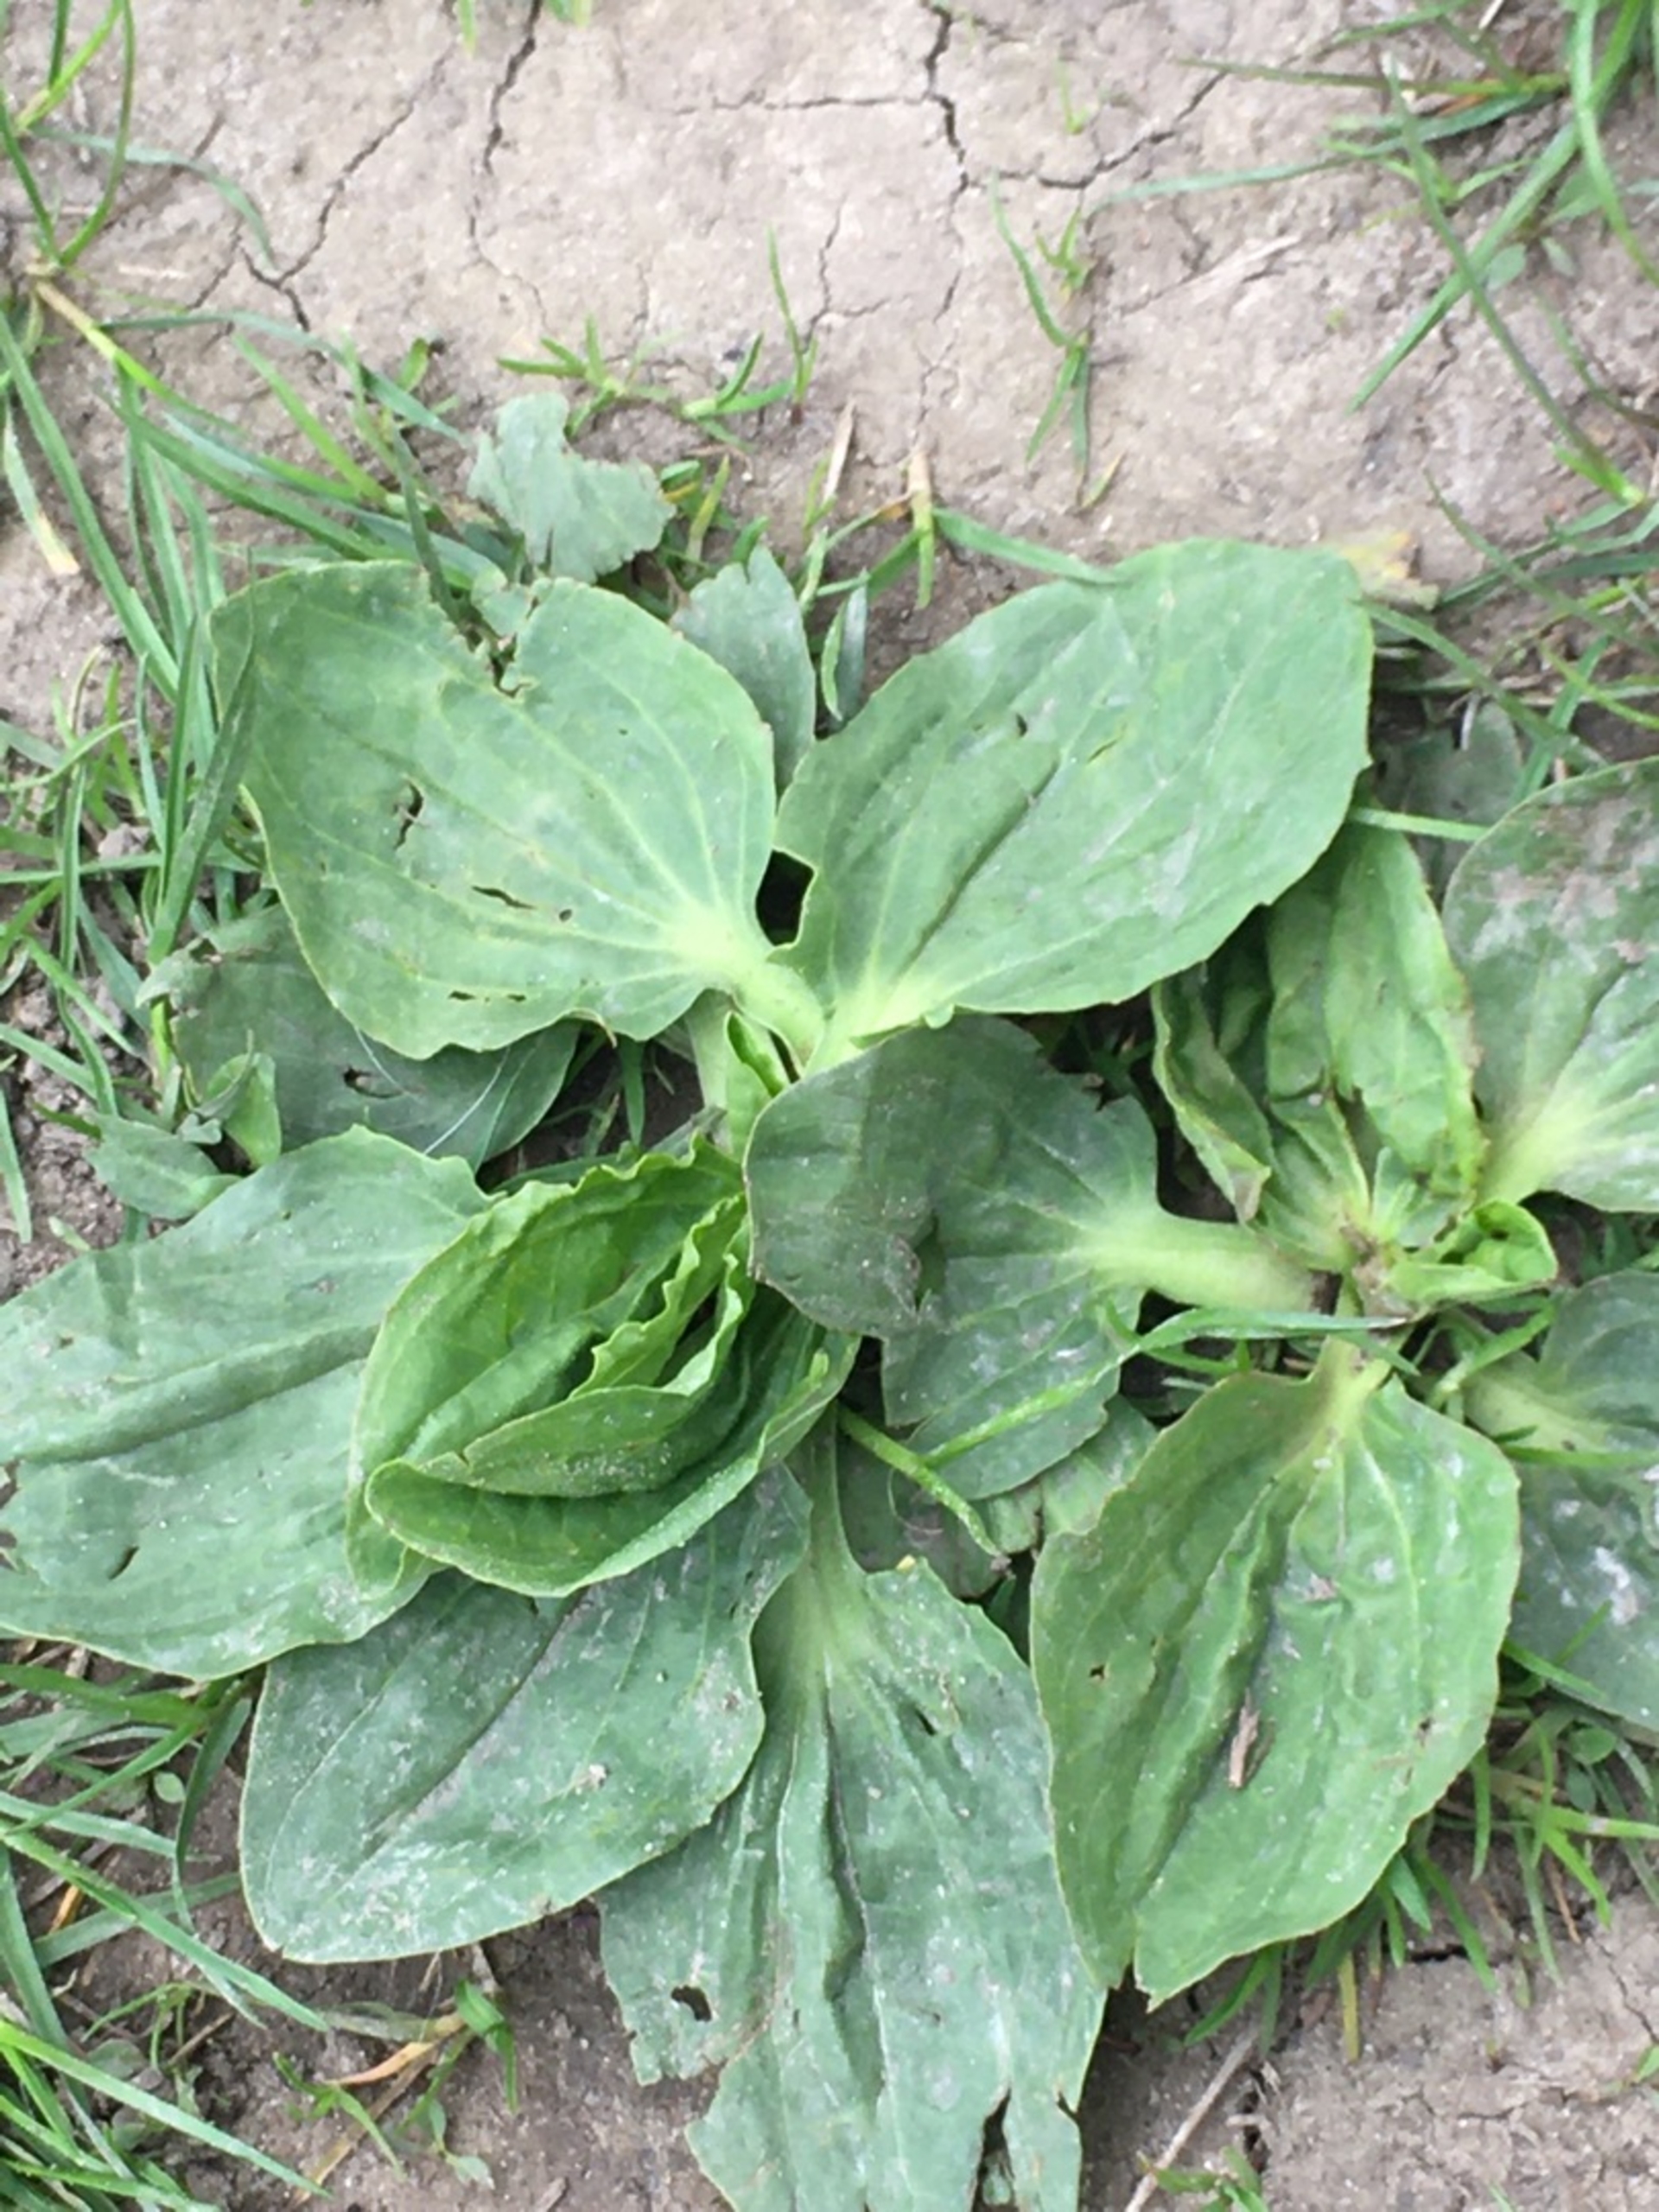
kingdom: Plantae
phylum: Tracheophyta
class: Magnoliopsida
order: Lamiales
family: Plantaginaceae
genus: Plantago
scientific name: Plantago major
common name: Glat vejbred
